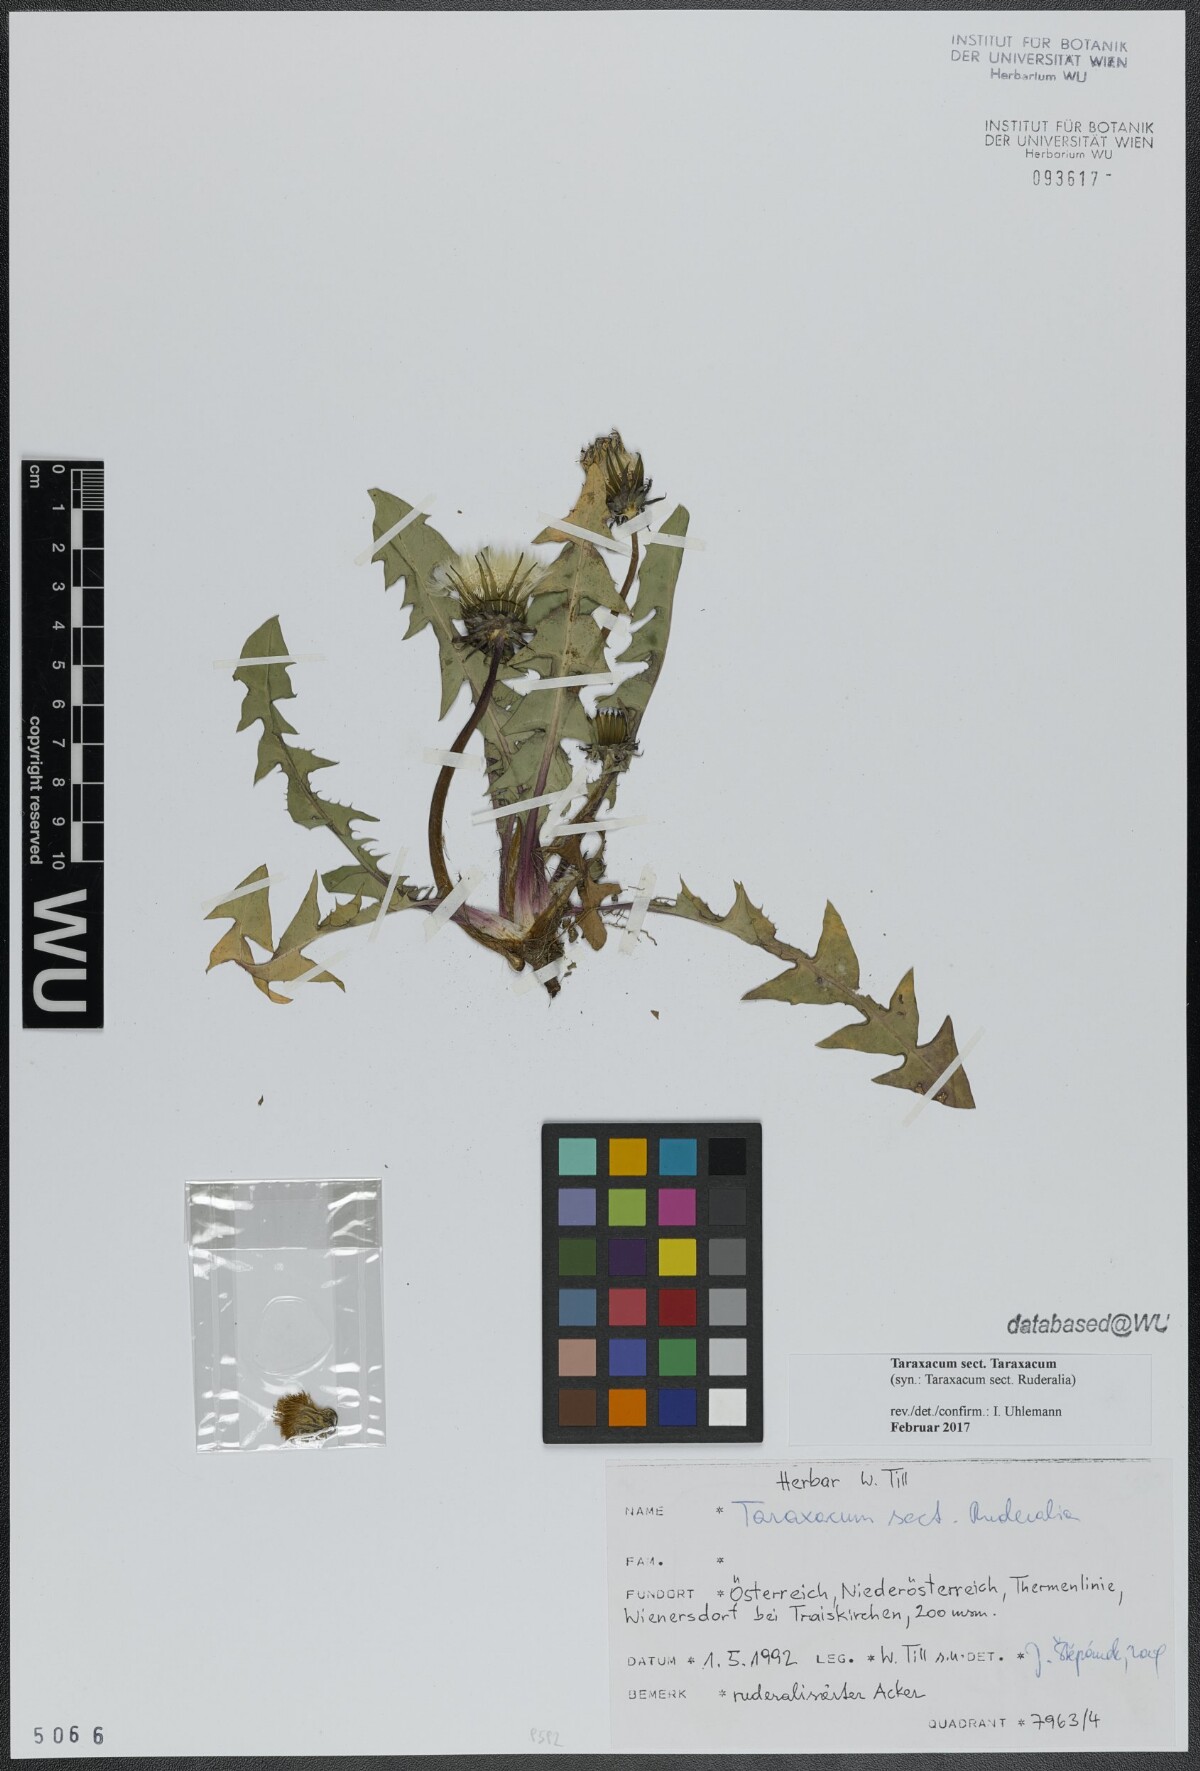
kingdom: Plantae
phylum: Tracheophyta
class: Magnoliopsida
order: Asterales
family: Asteraceae
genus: Taraxacum
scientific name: Taraxacum
